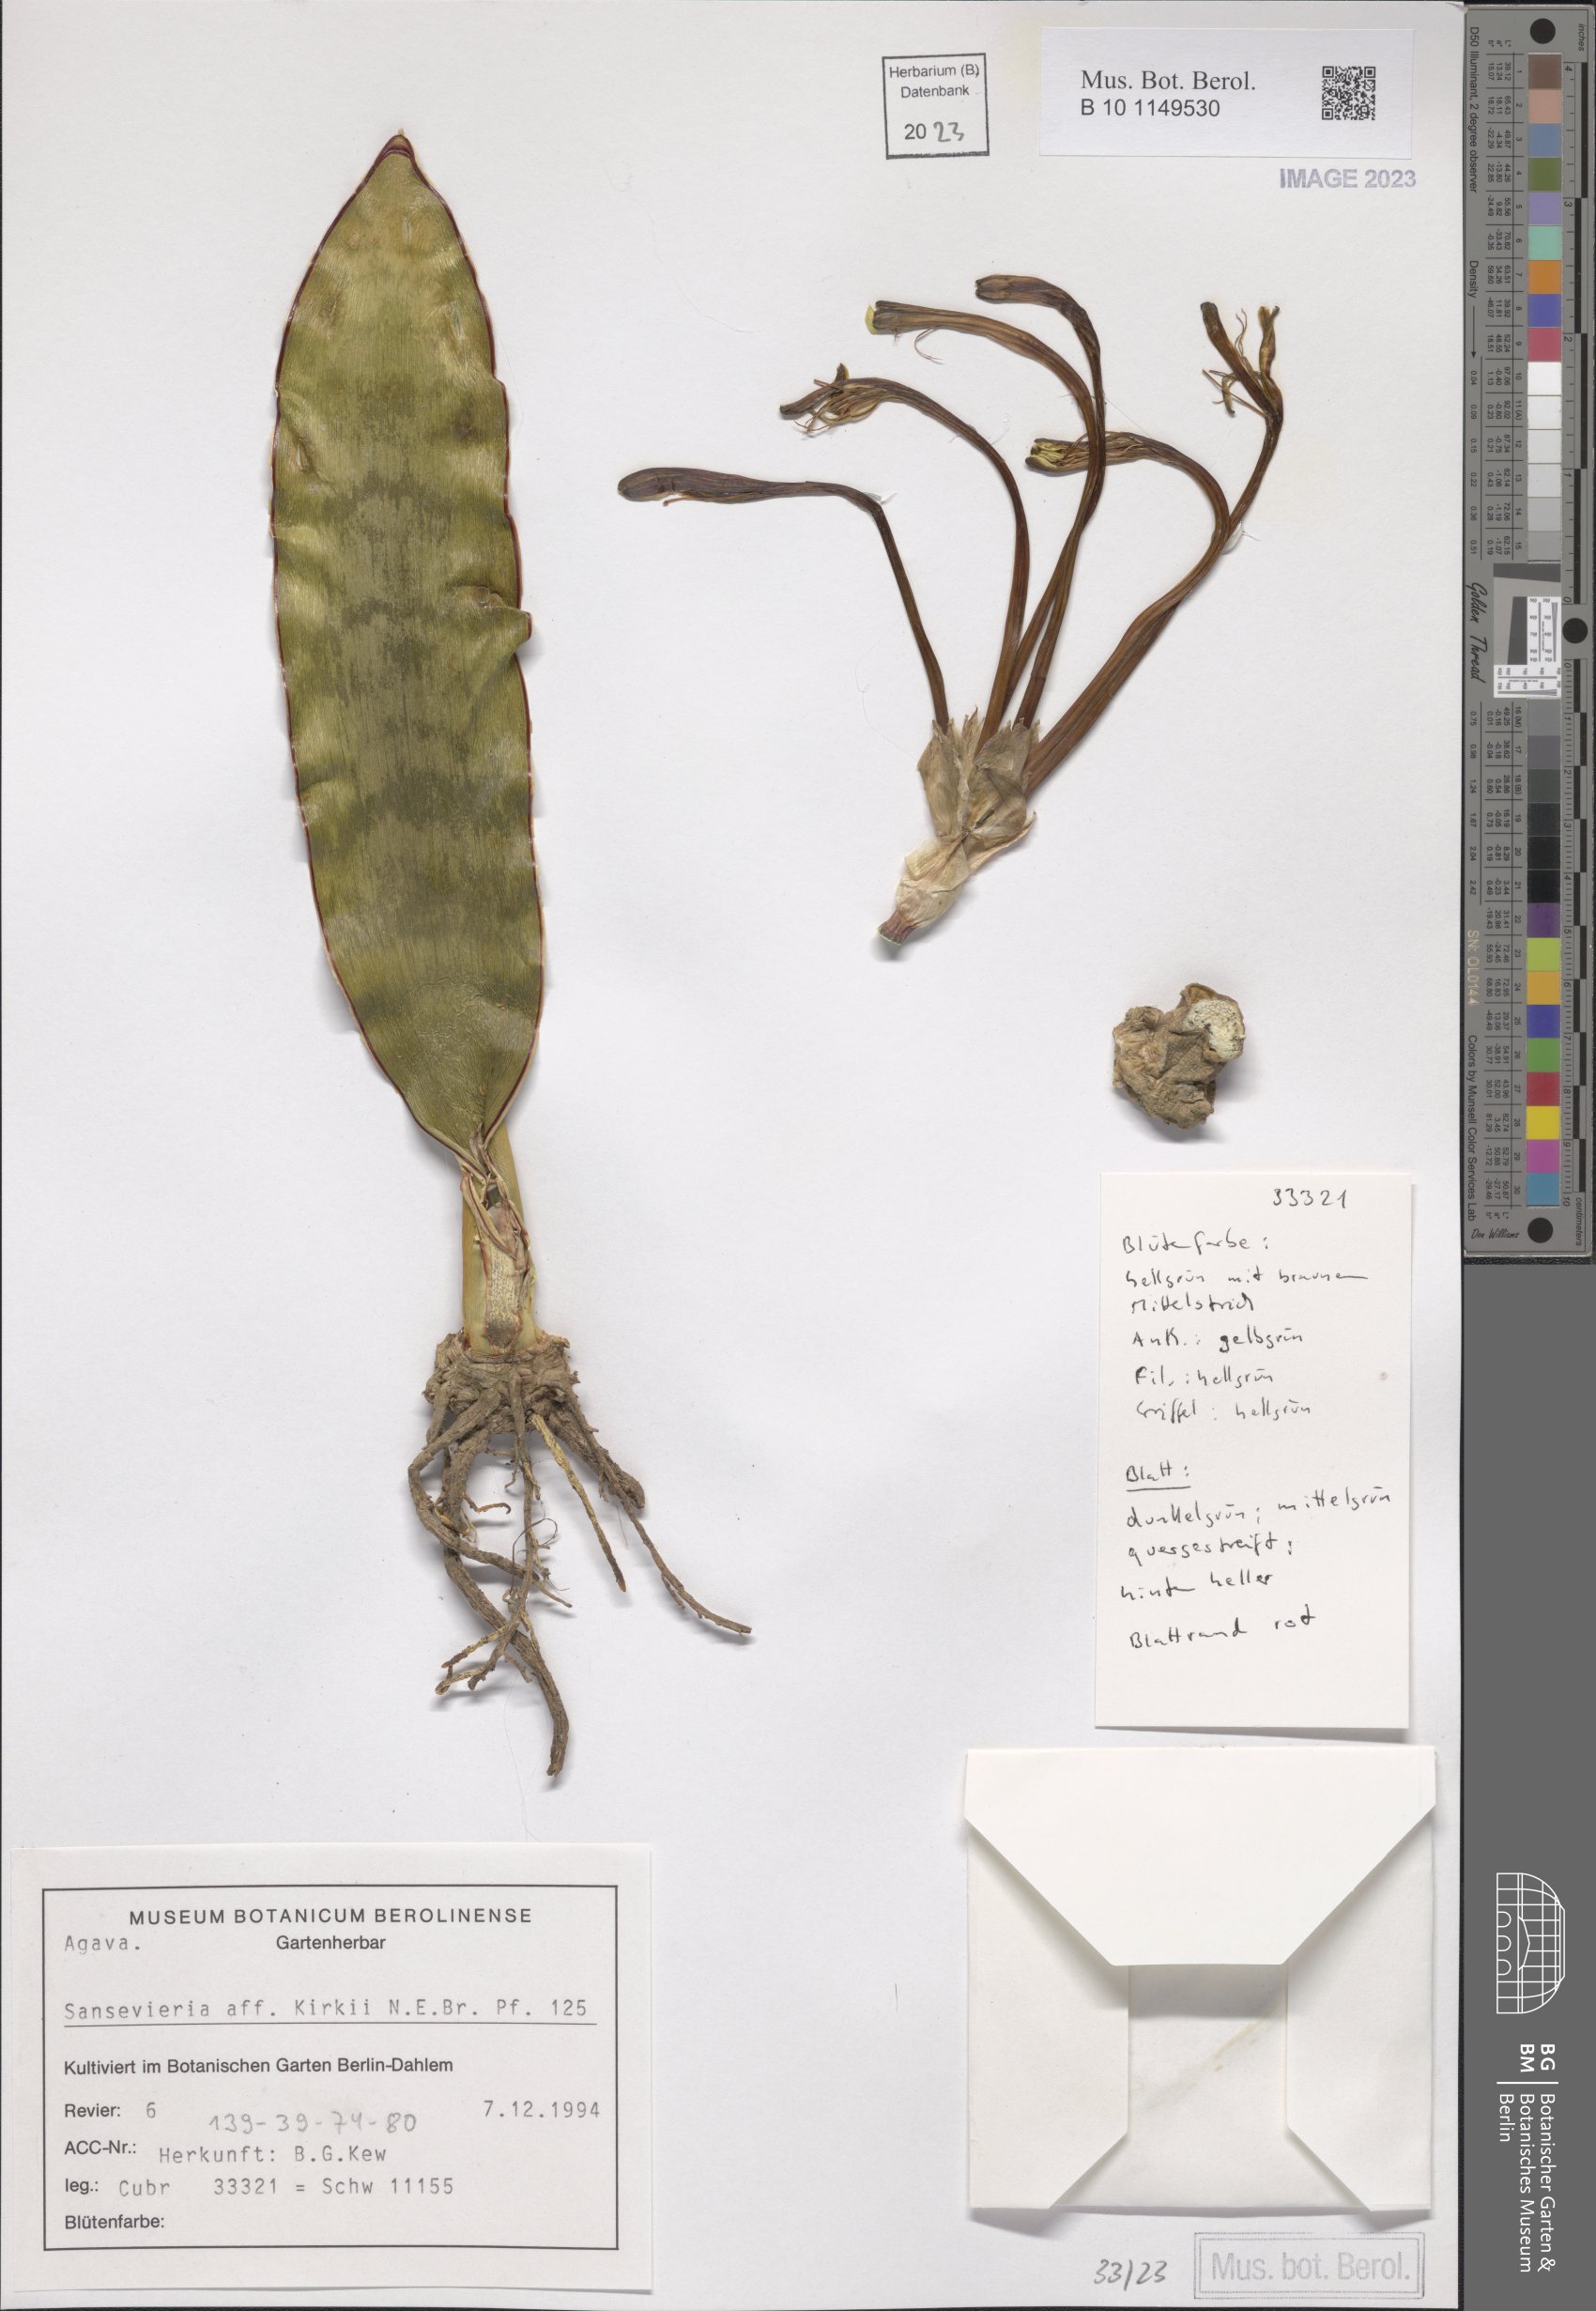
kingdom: Plantae
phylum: Tracheophyta
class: Liliopsida
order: Asparagales
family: Asparagaceae
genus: Dracaena
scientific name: Dracaena pethera
